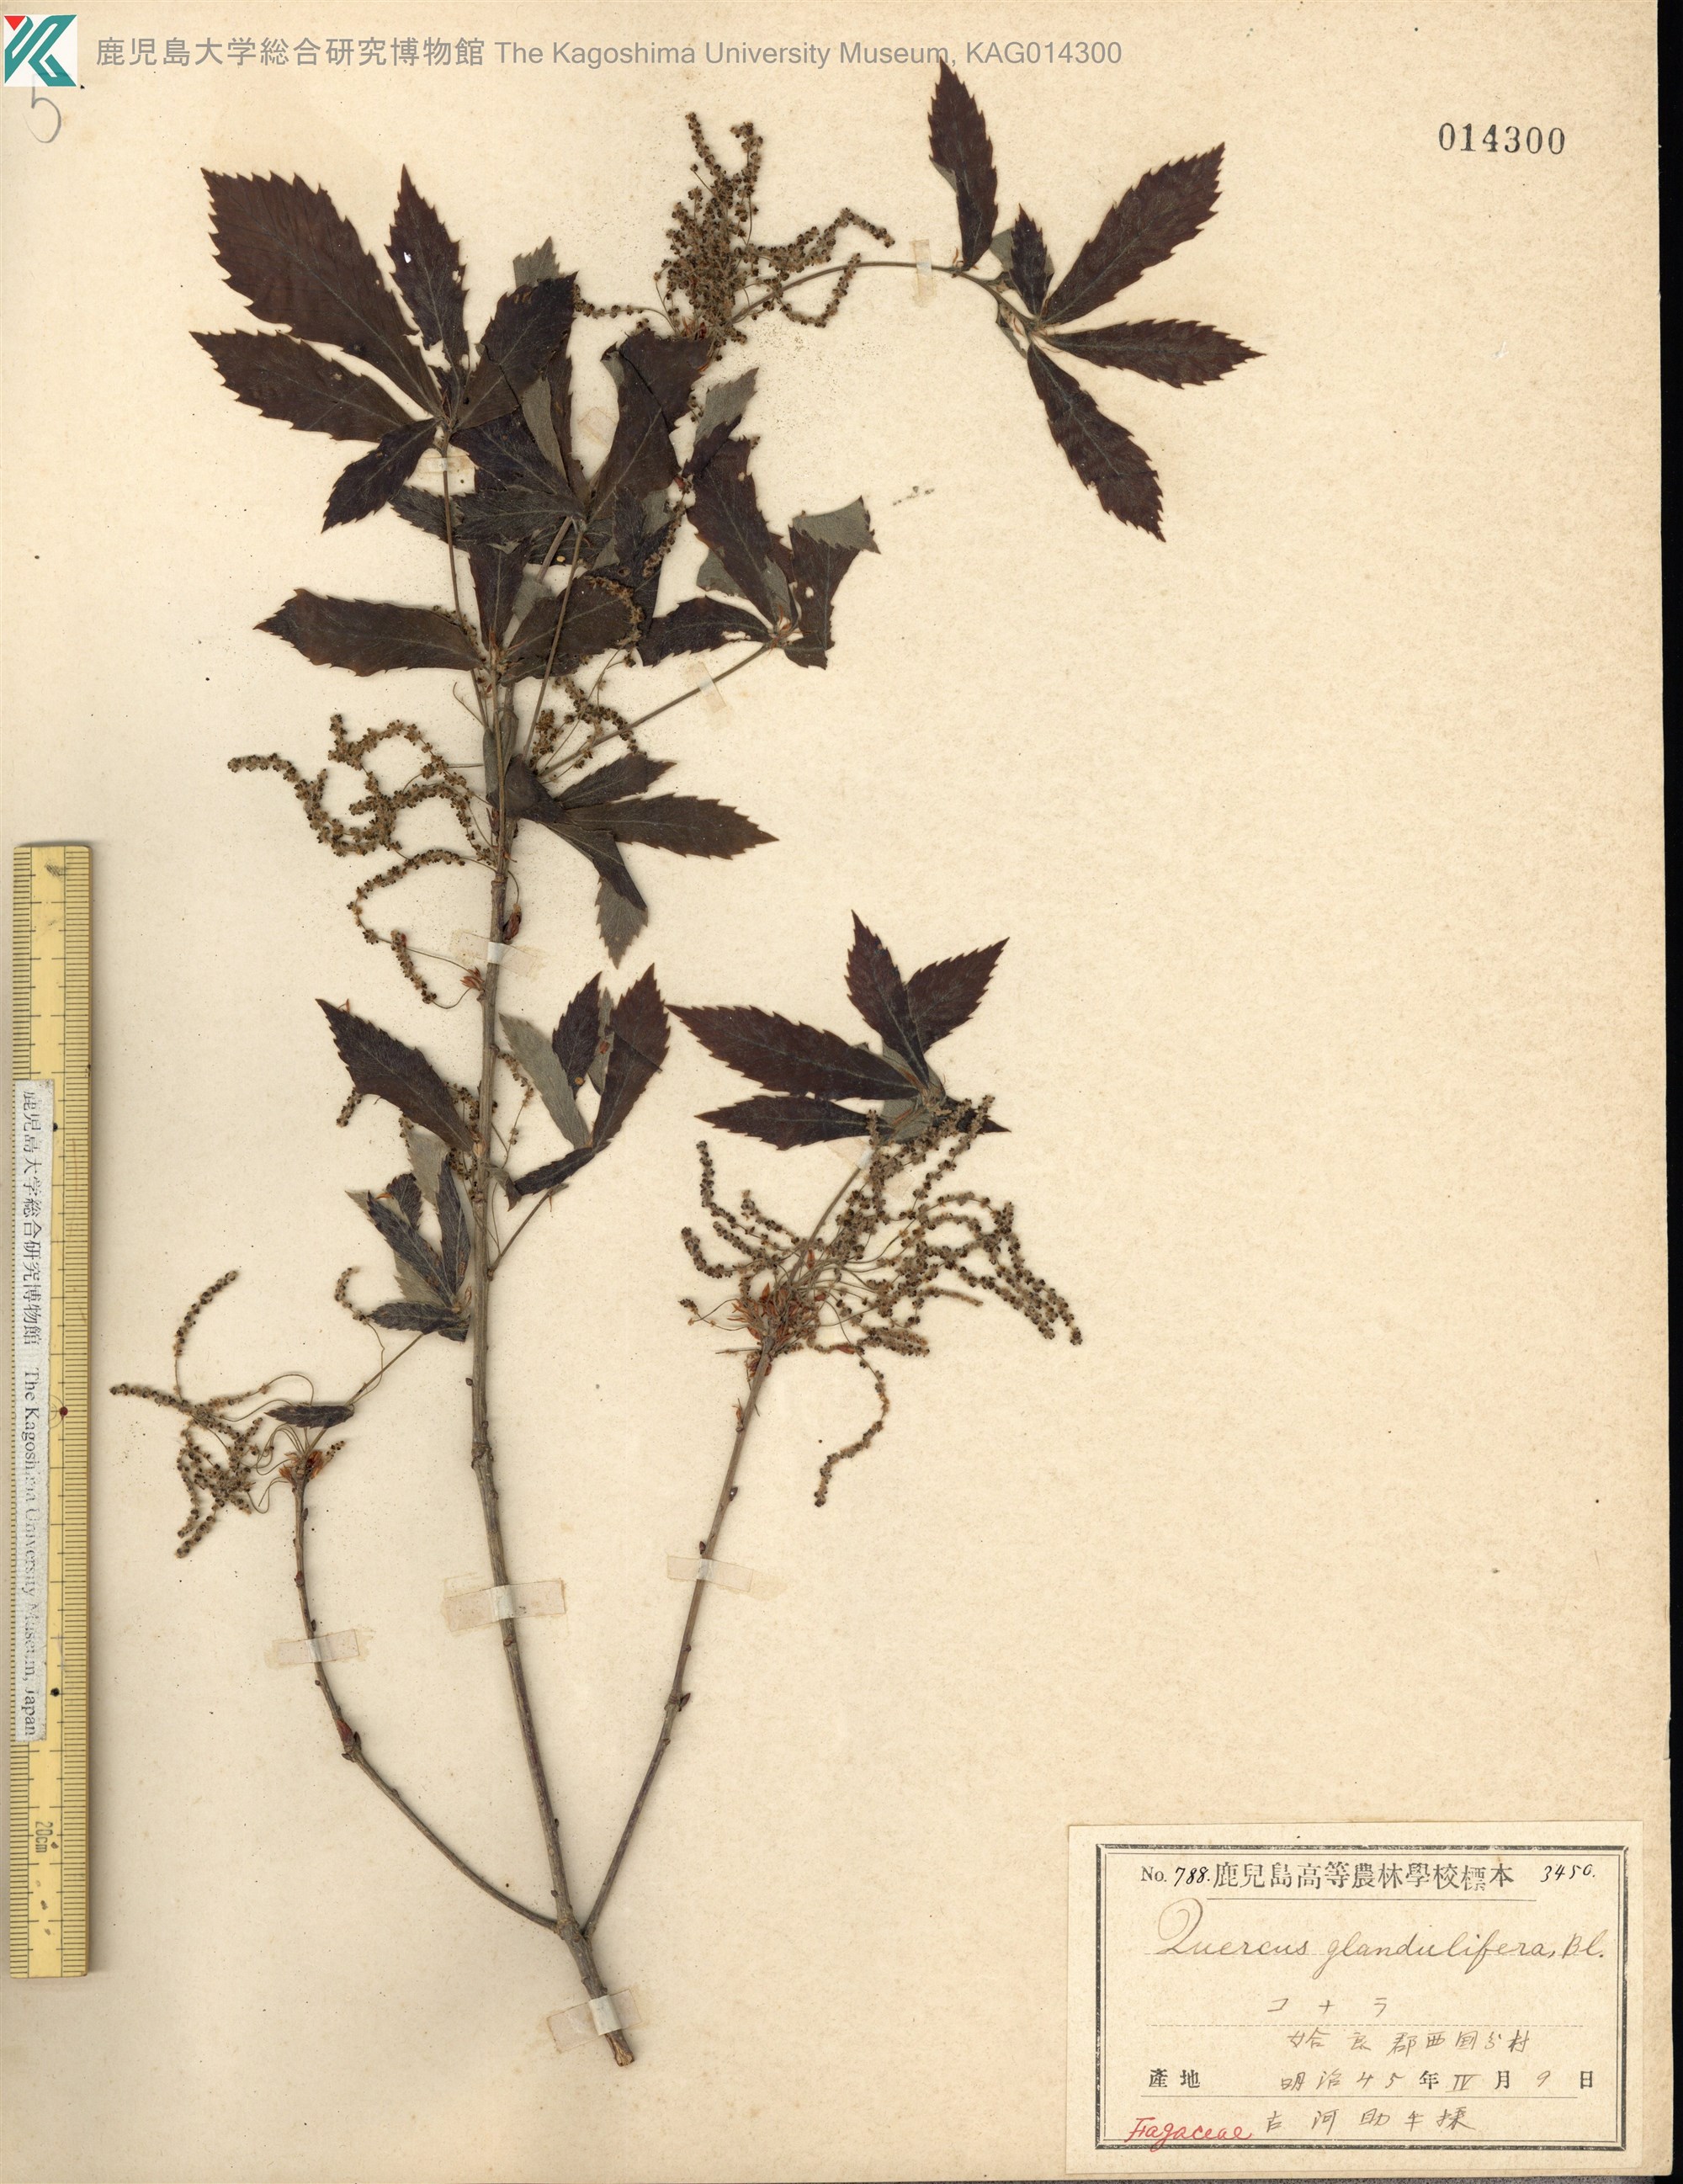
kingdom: Plantae
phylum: Tracheophyta
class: Magnoliopsida
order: Fagales
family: Fagaceae
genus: Quercus
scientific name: Quercus serrata
